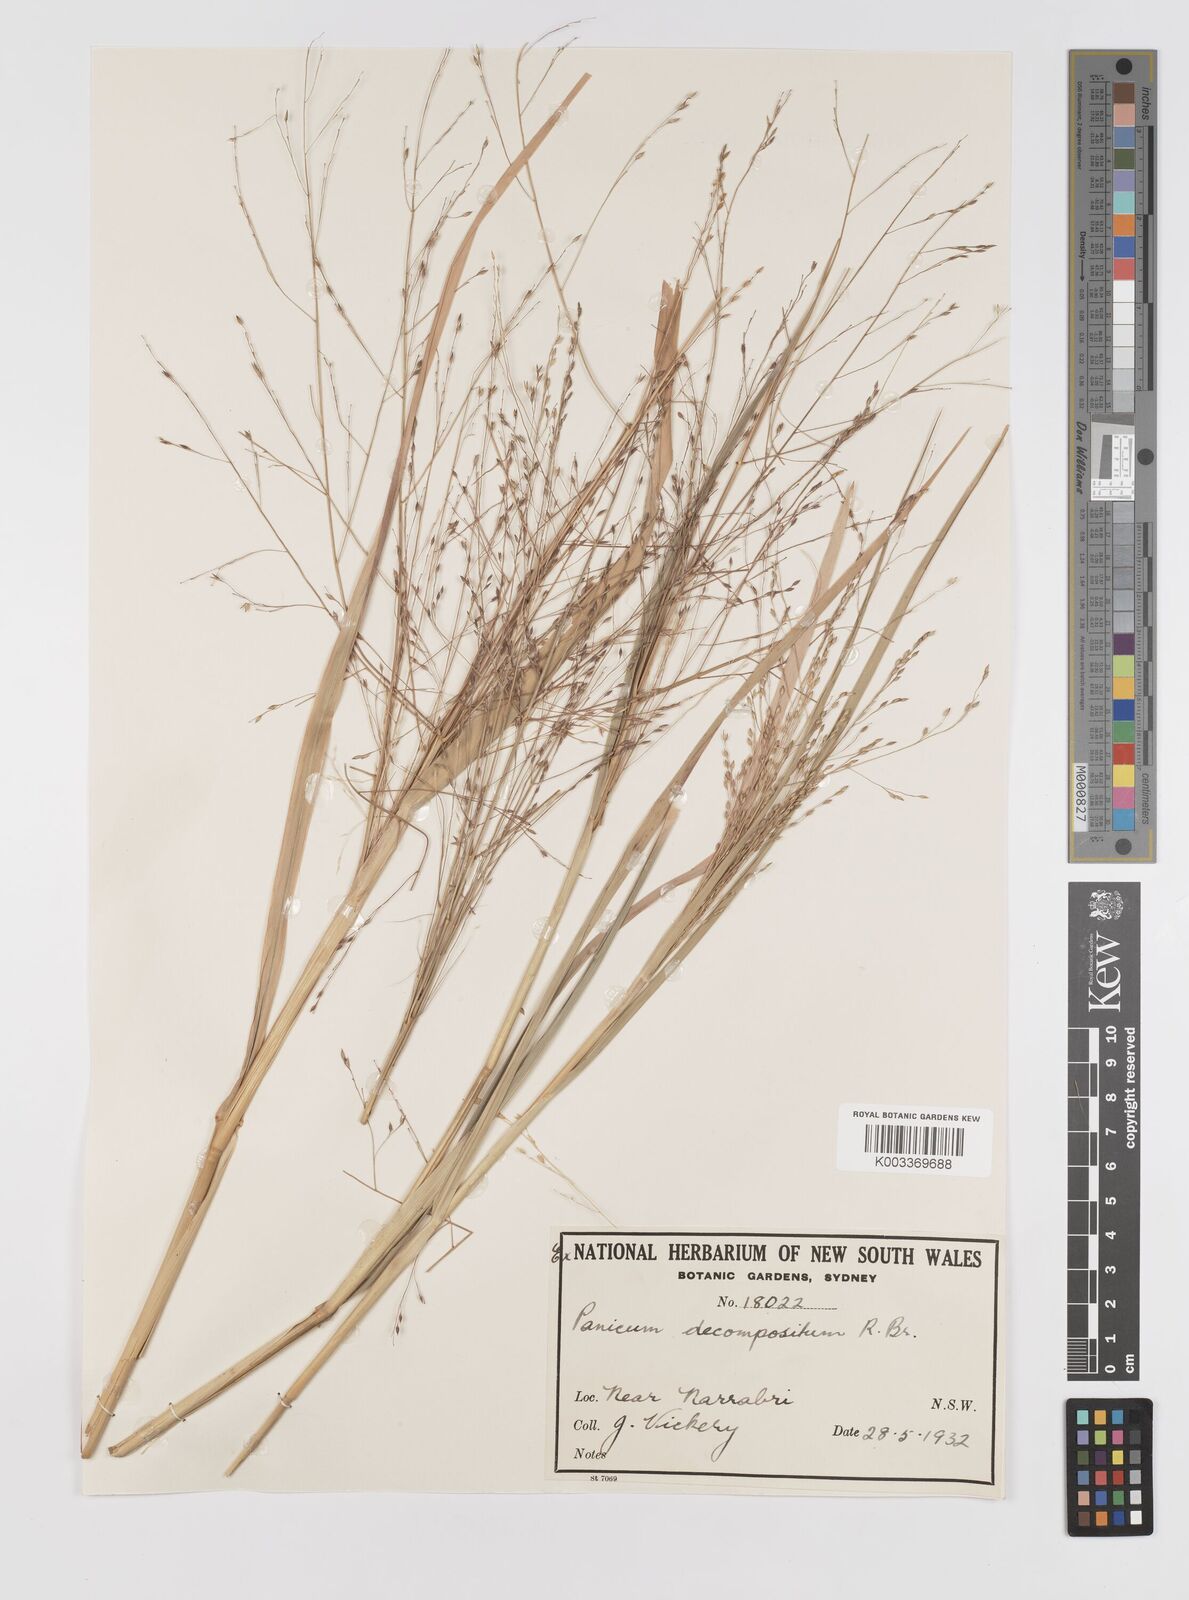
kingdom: Plantae
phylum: Tracheophyta
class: Liliopsida
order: Poales
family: Poaceae
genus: Panicum
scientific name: Panicum decompositum
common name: Australian millet
